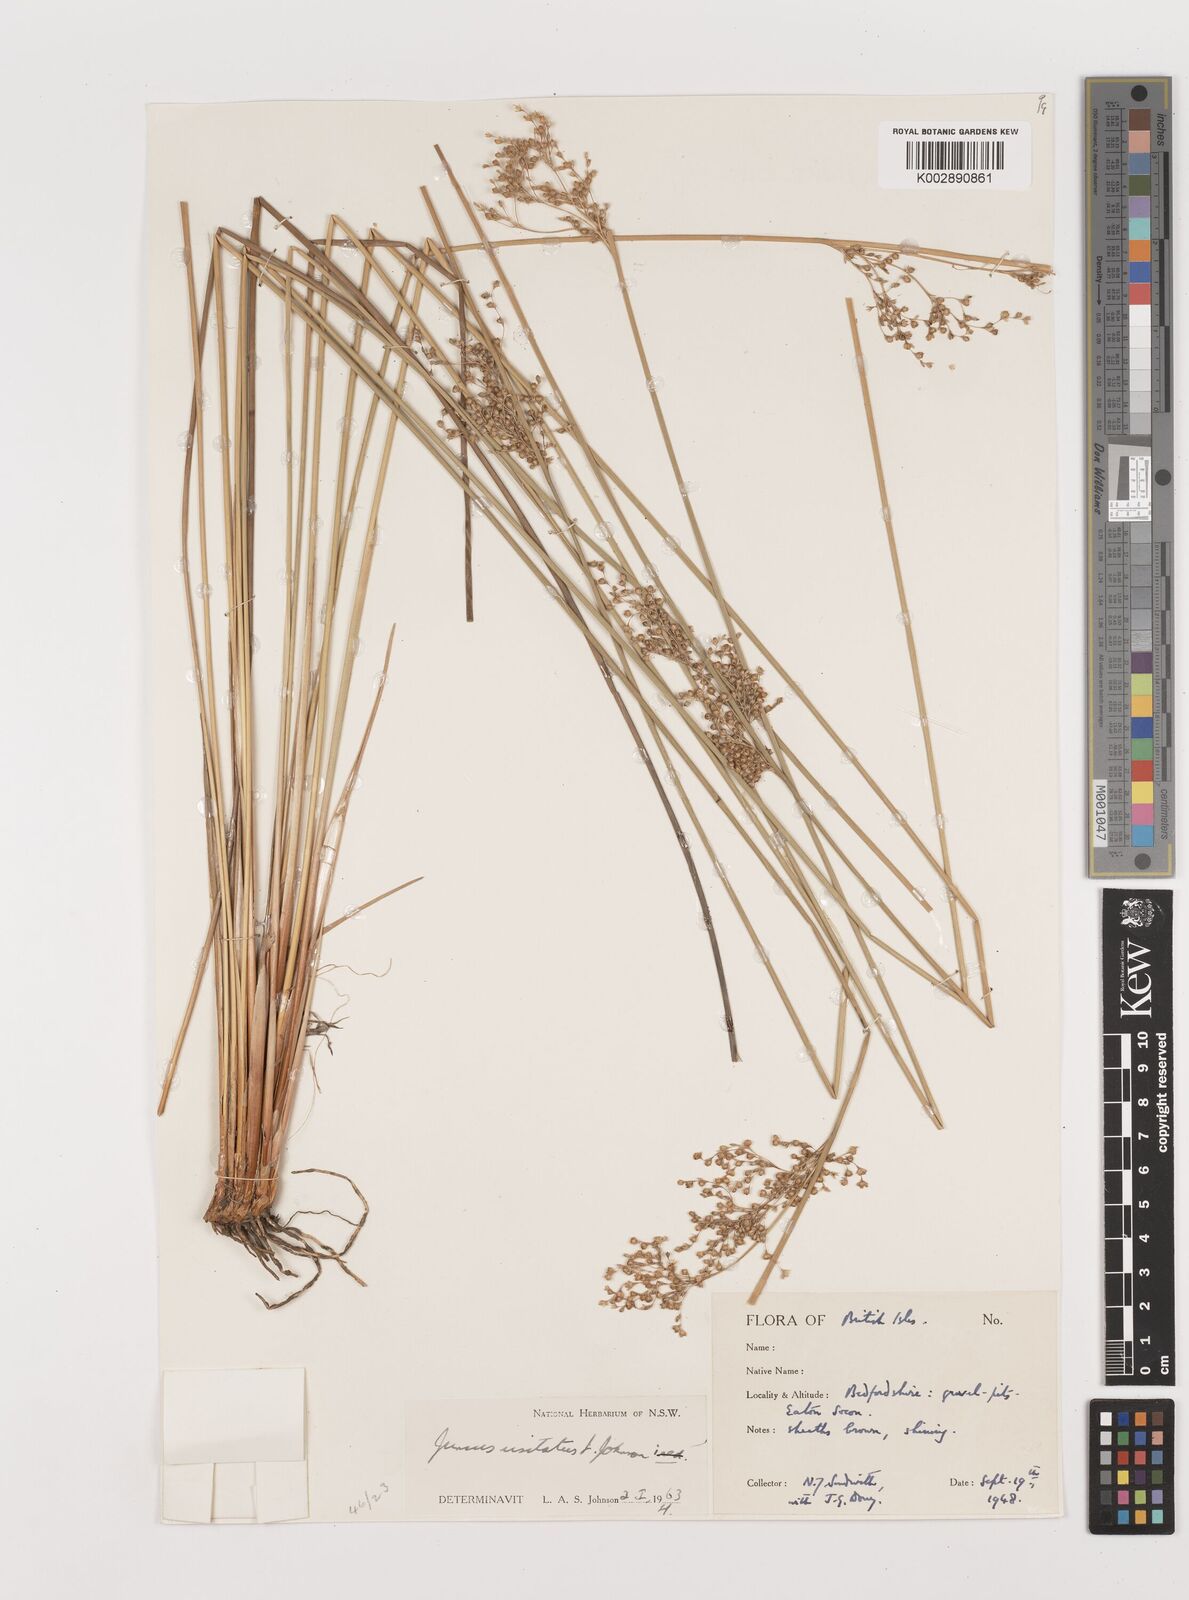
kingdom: Plantae
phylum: Tracheophyta
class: Liliopsida
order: Poales
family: Juncaceae
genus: Juncus
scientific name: Juncus usitatus
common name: Rush
